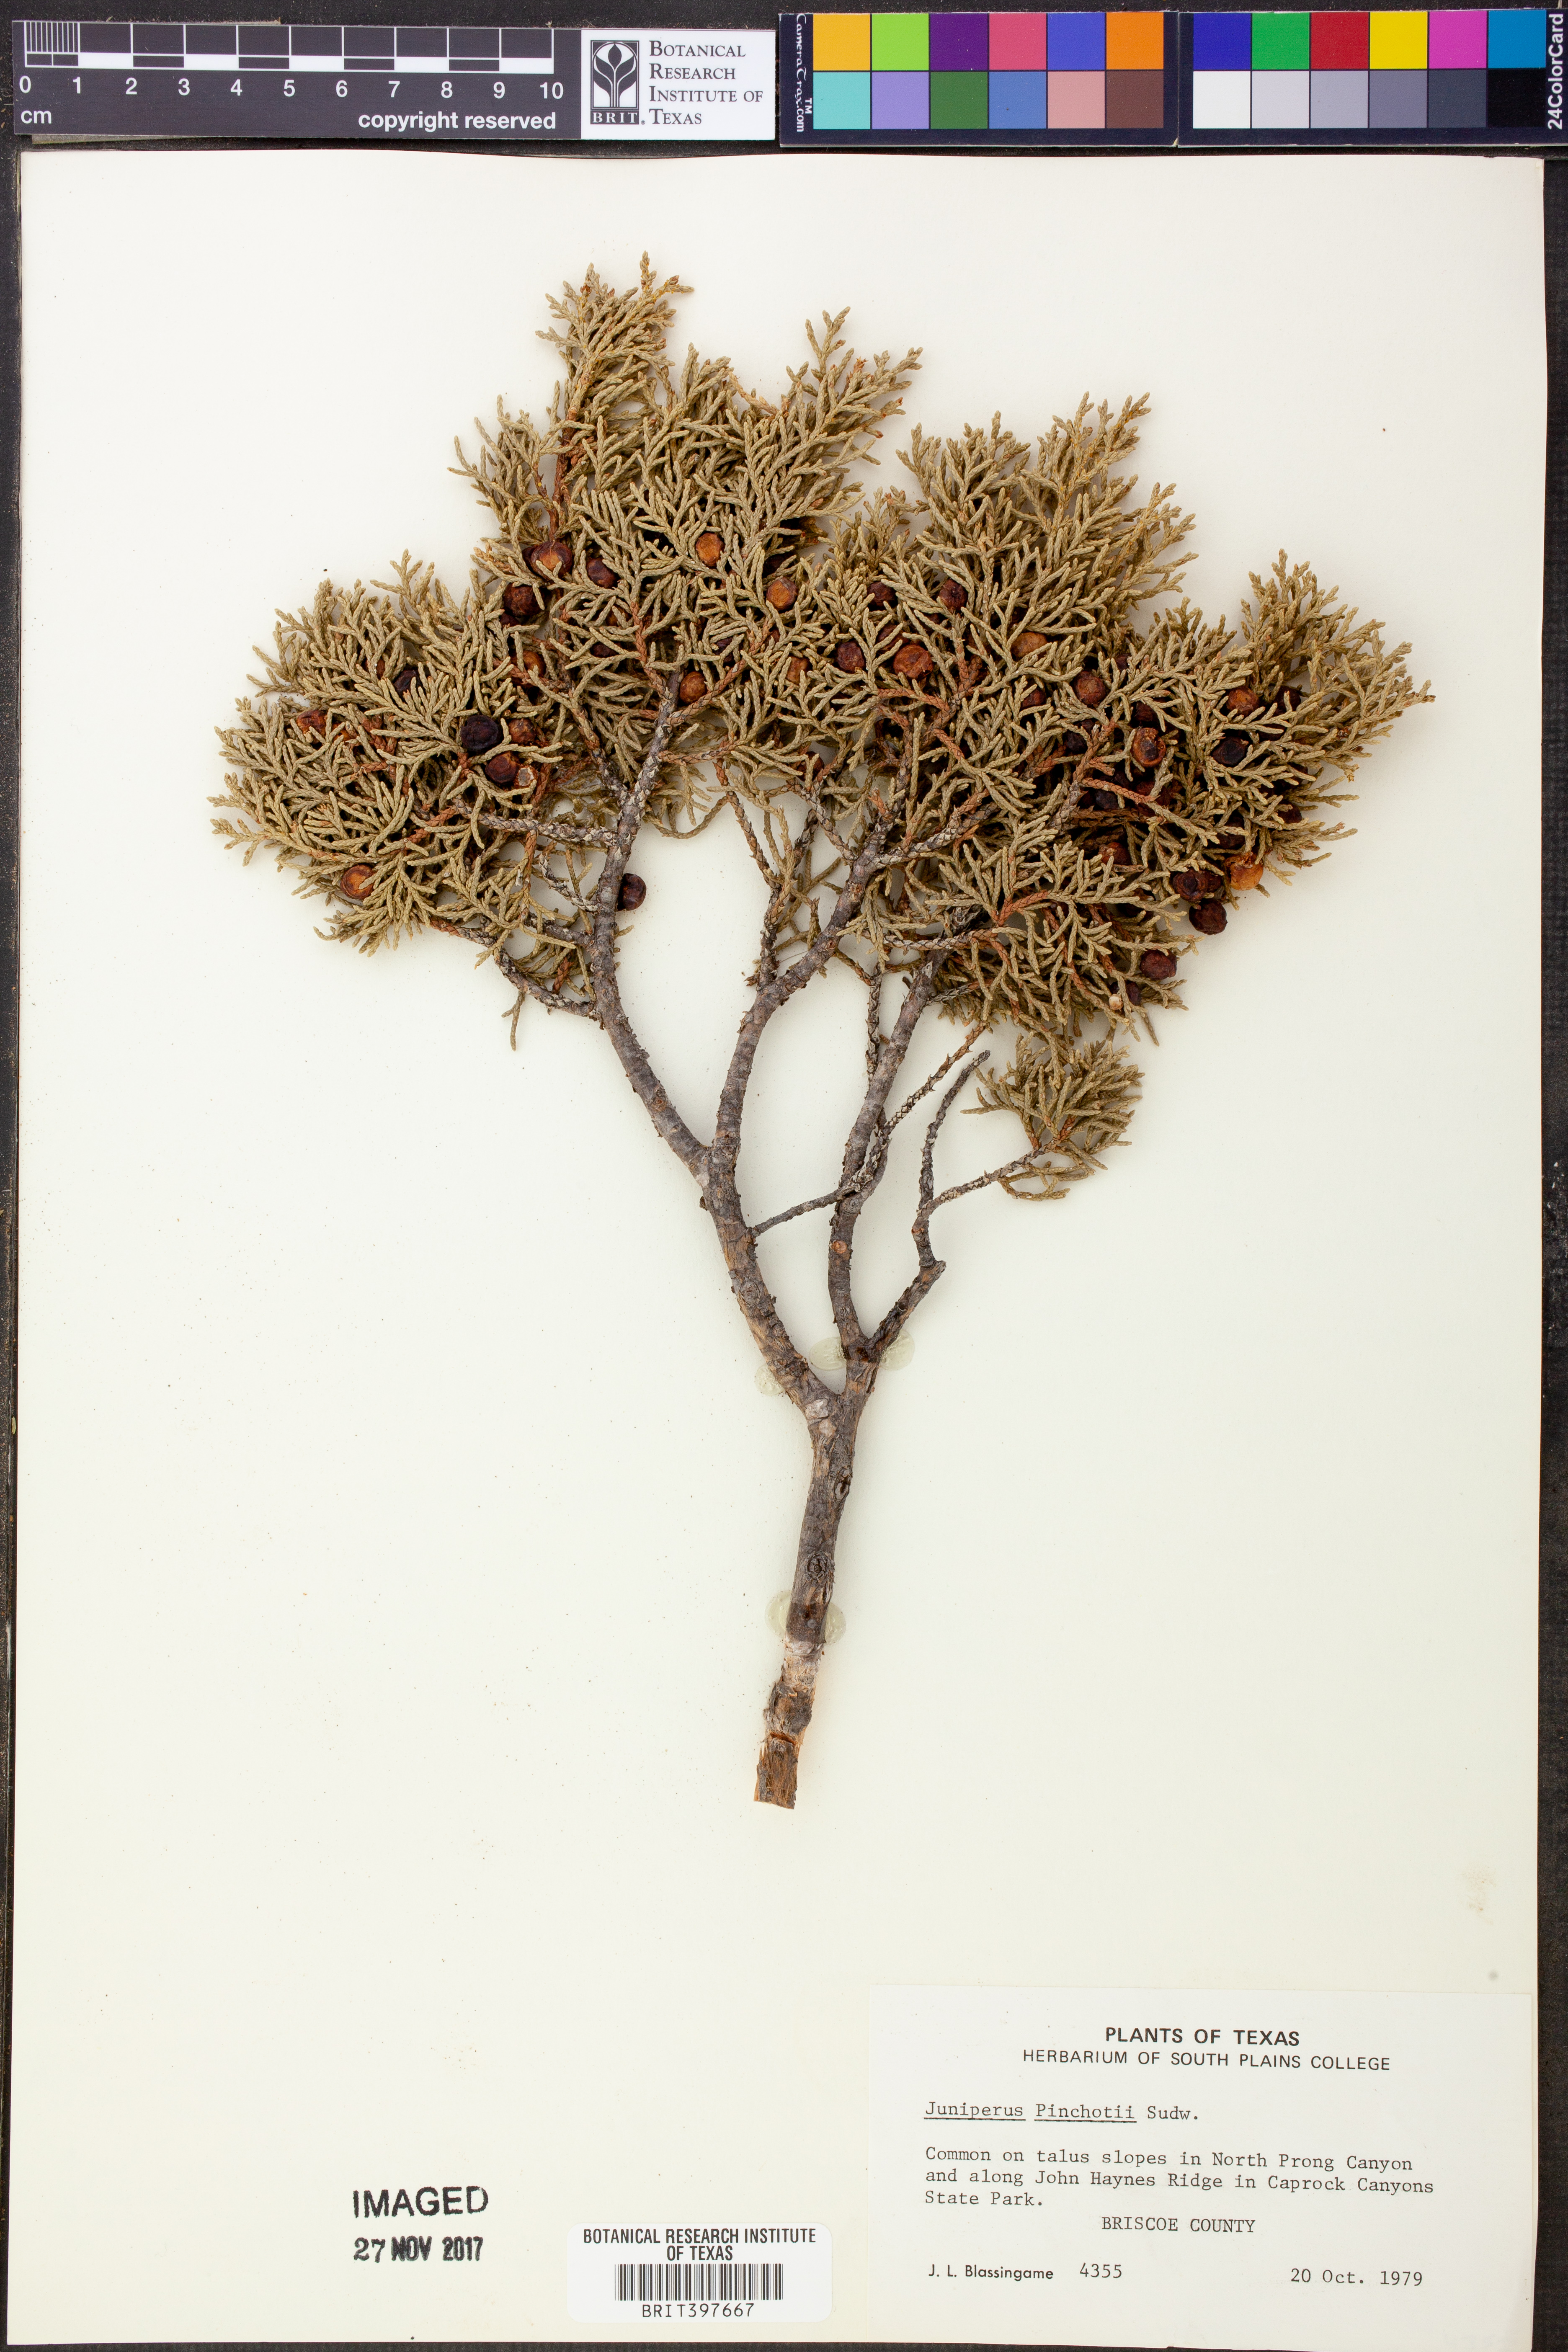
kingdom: Plantae
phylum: Tracheophyta
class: Pinopsida
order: Pinales
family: Cupressaceae
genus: Juniperus
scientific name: Juniperus pinchotii
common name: Pinchot juniper
